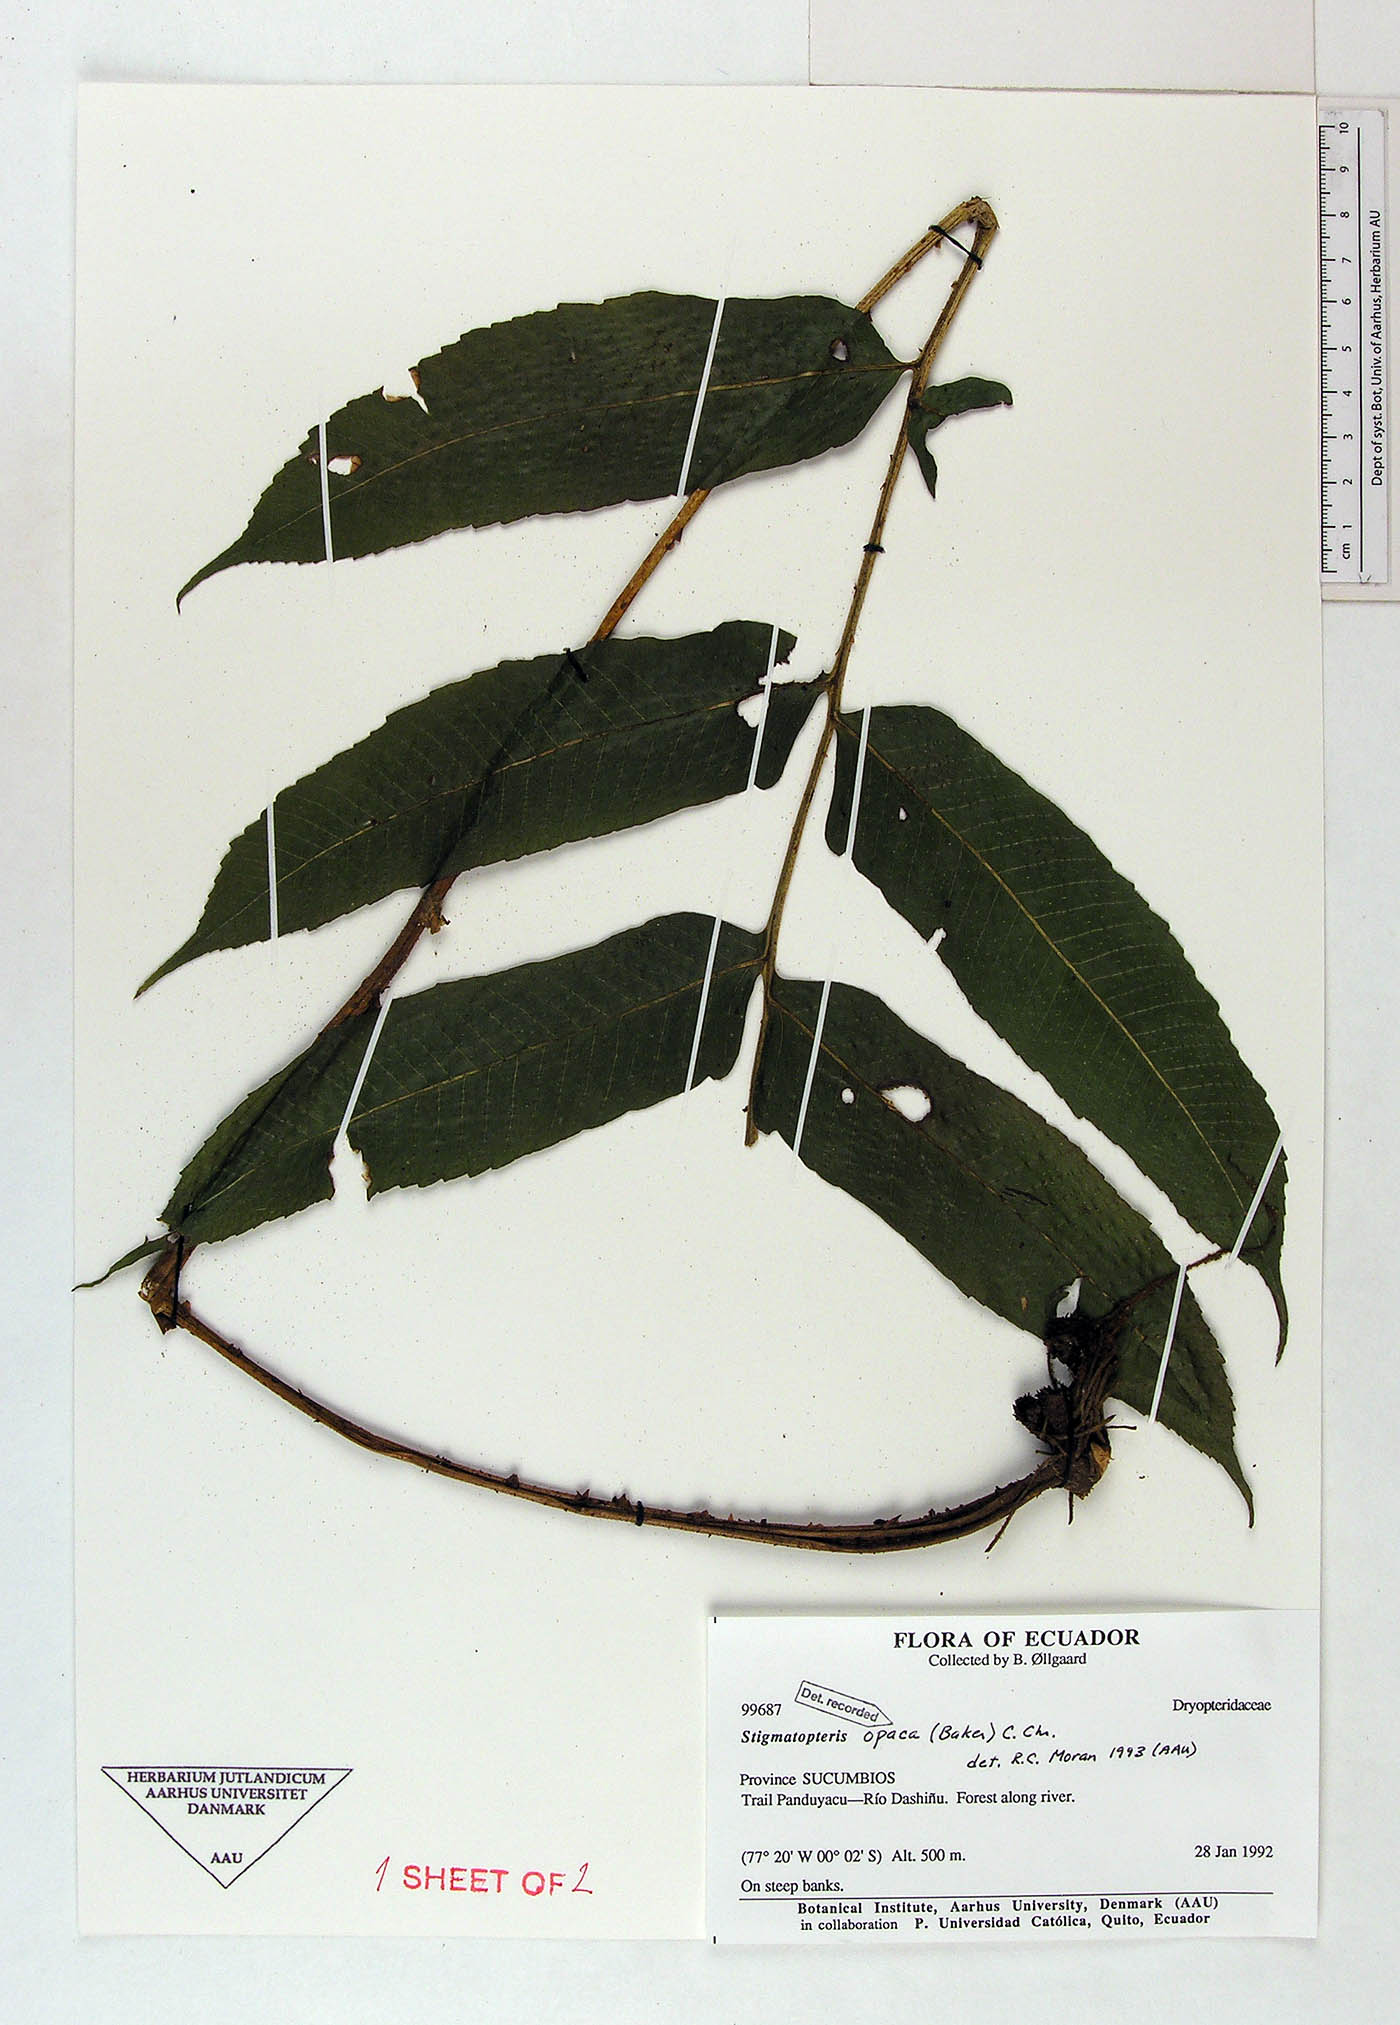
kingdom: Plantae
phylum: Tracheophyta
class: Polypodiopsida
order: Polypodiales
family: Dryopteridaceae
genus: Stigmatopteris
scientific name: Stigmatopteris opaca
